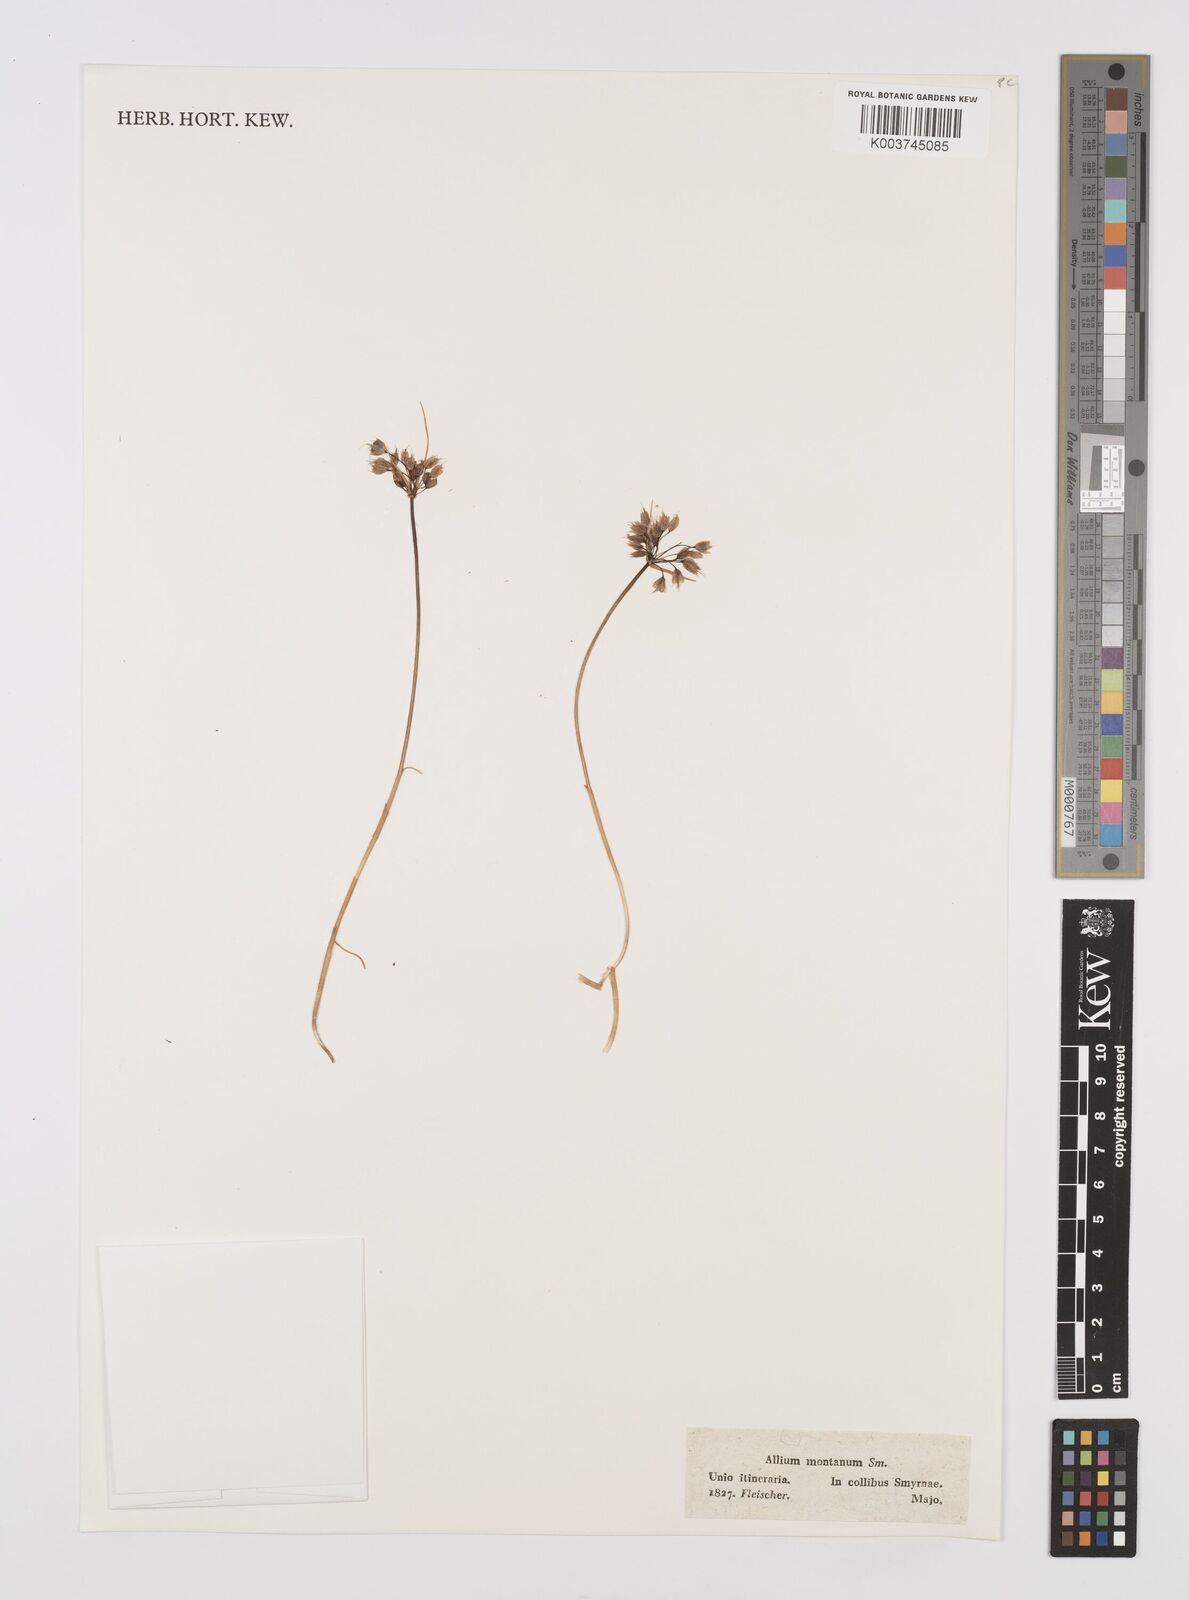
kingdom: Plantae
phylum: Tracheophyta
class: Liliopsida
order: Asparagales
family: Amaryllidaceae
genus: Allium
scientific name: Allium sibthorpianum
